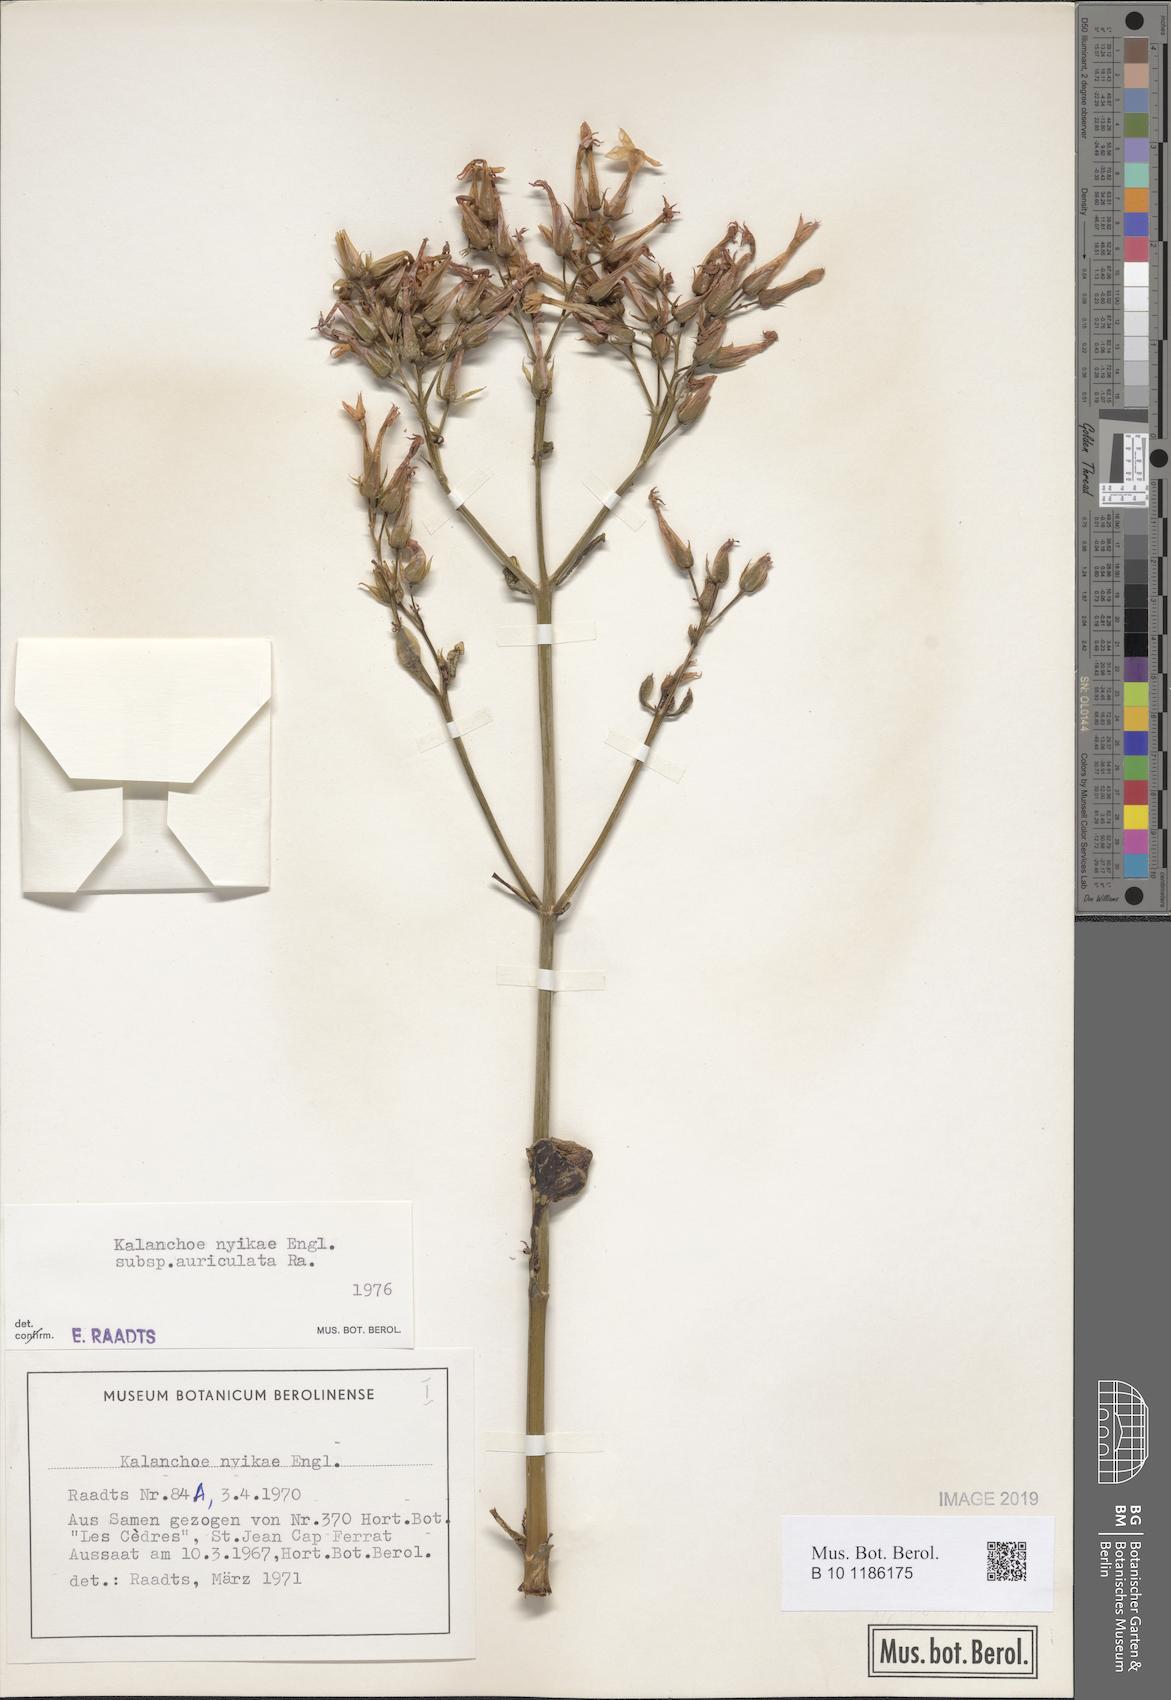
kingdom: Plantae
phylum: Tracheophyta
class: Magnoliopsida
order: Saxifragales
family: Crassulaceae
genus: Kalanchoe
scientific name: Kalanchoe auriculata
